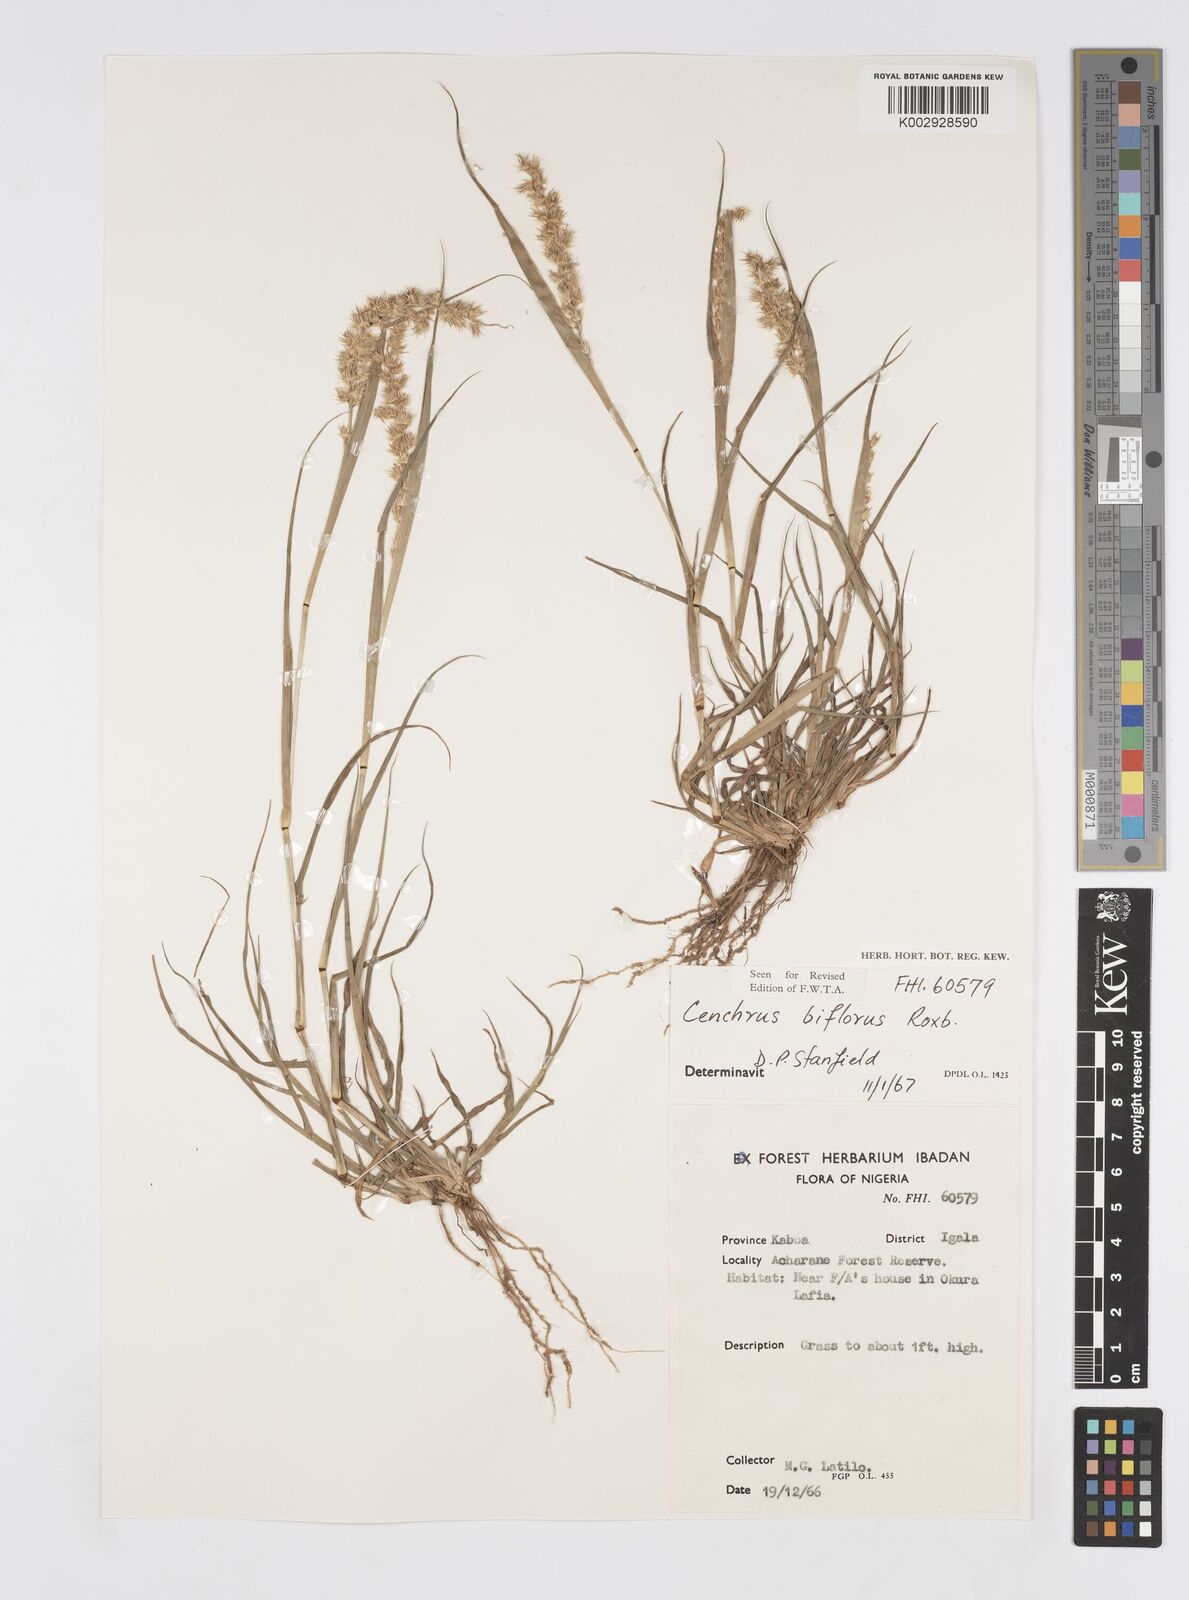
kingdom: Plantae
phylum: Tracheophyta
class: Liliopsida
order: Poales
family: Poaceae
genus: Cenchrus
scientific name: Cenchrus biflorus
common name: Indian sandbur
